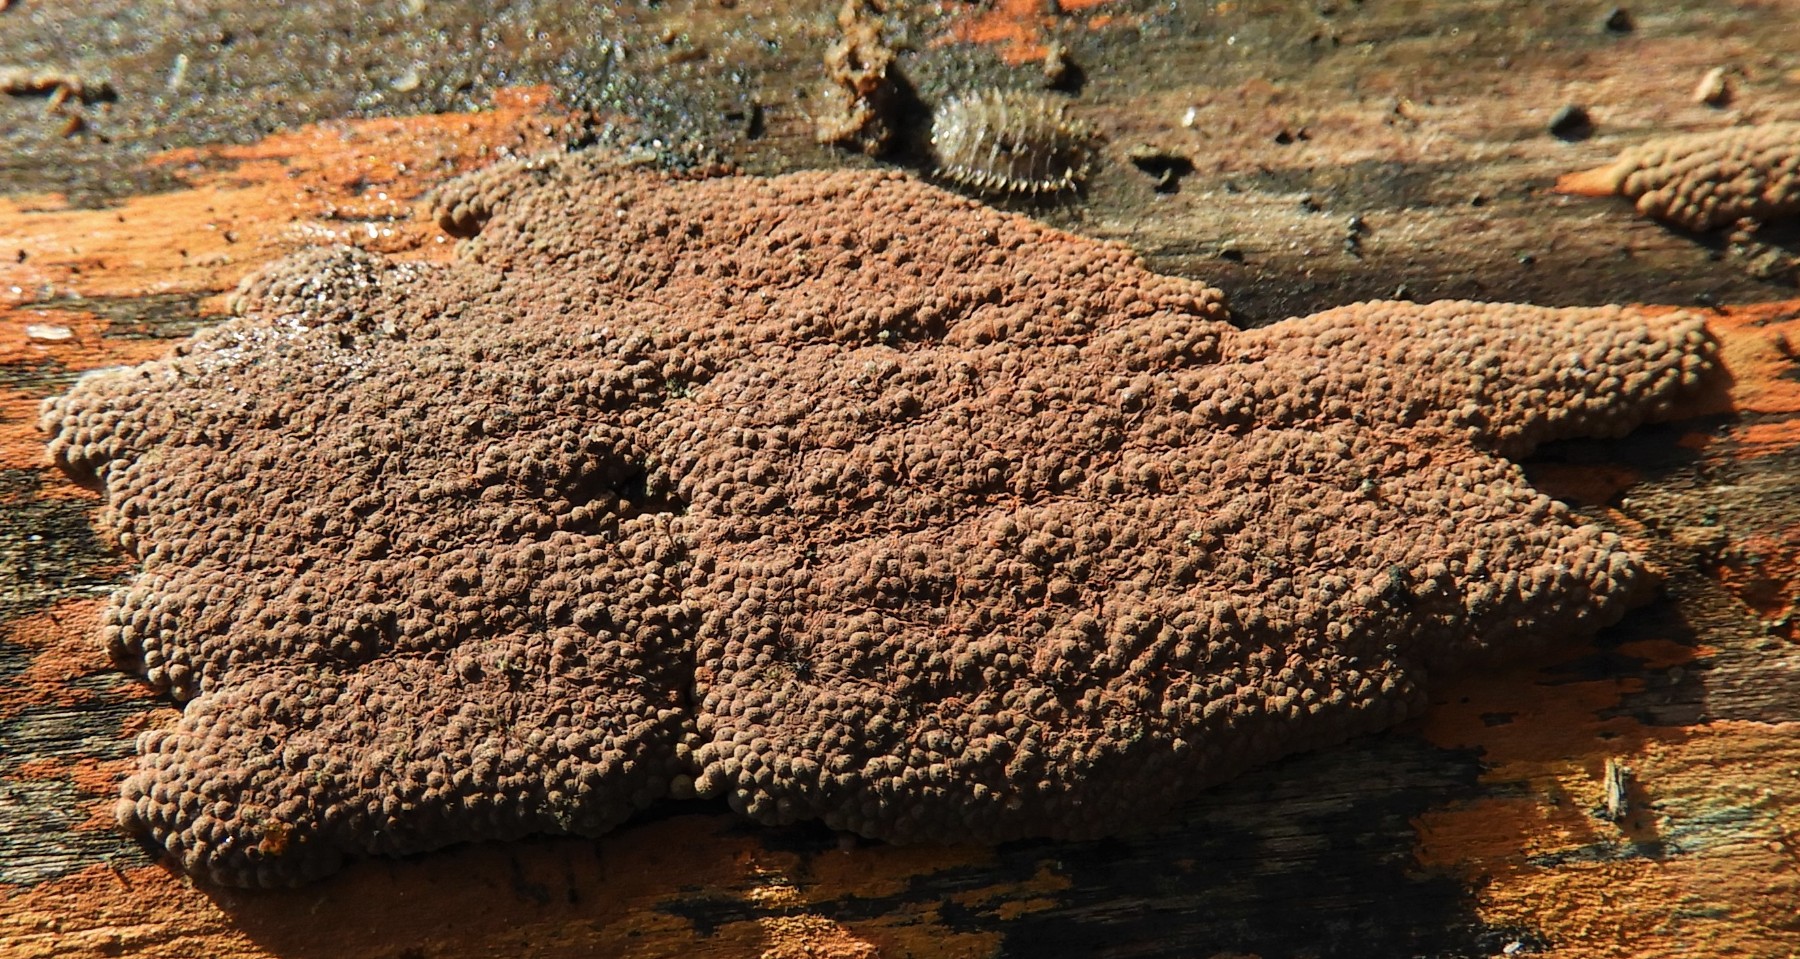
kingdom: Fungi
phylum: Ascomycota
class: Sordariomycetes
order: Xylariales
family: Hypoxylaceae
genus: Hypoxylon
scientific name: Hypoxylon rubiginosum
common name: rustfarvet kulbær
